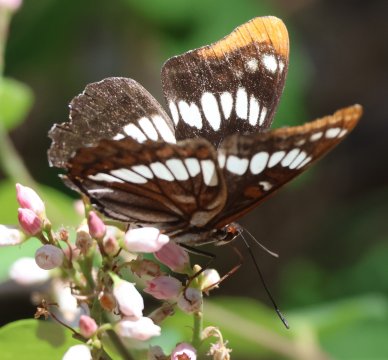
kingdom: Animalia
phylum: Arthropoda
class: Insecta
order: Lepidoptera
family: Nymphalidae
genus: Limenitis
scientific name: Limenitis lorquini
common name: Lorquin's Admiral
